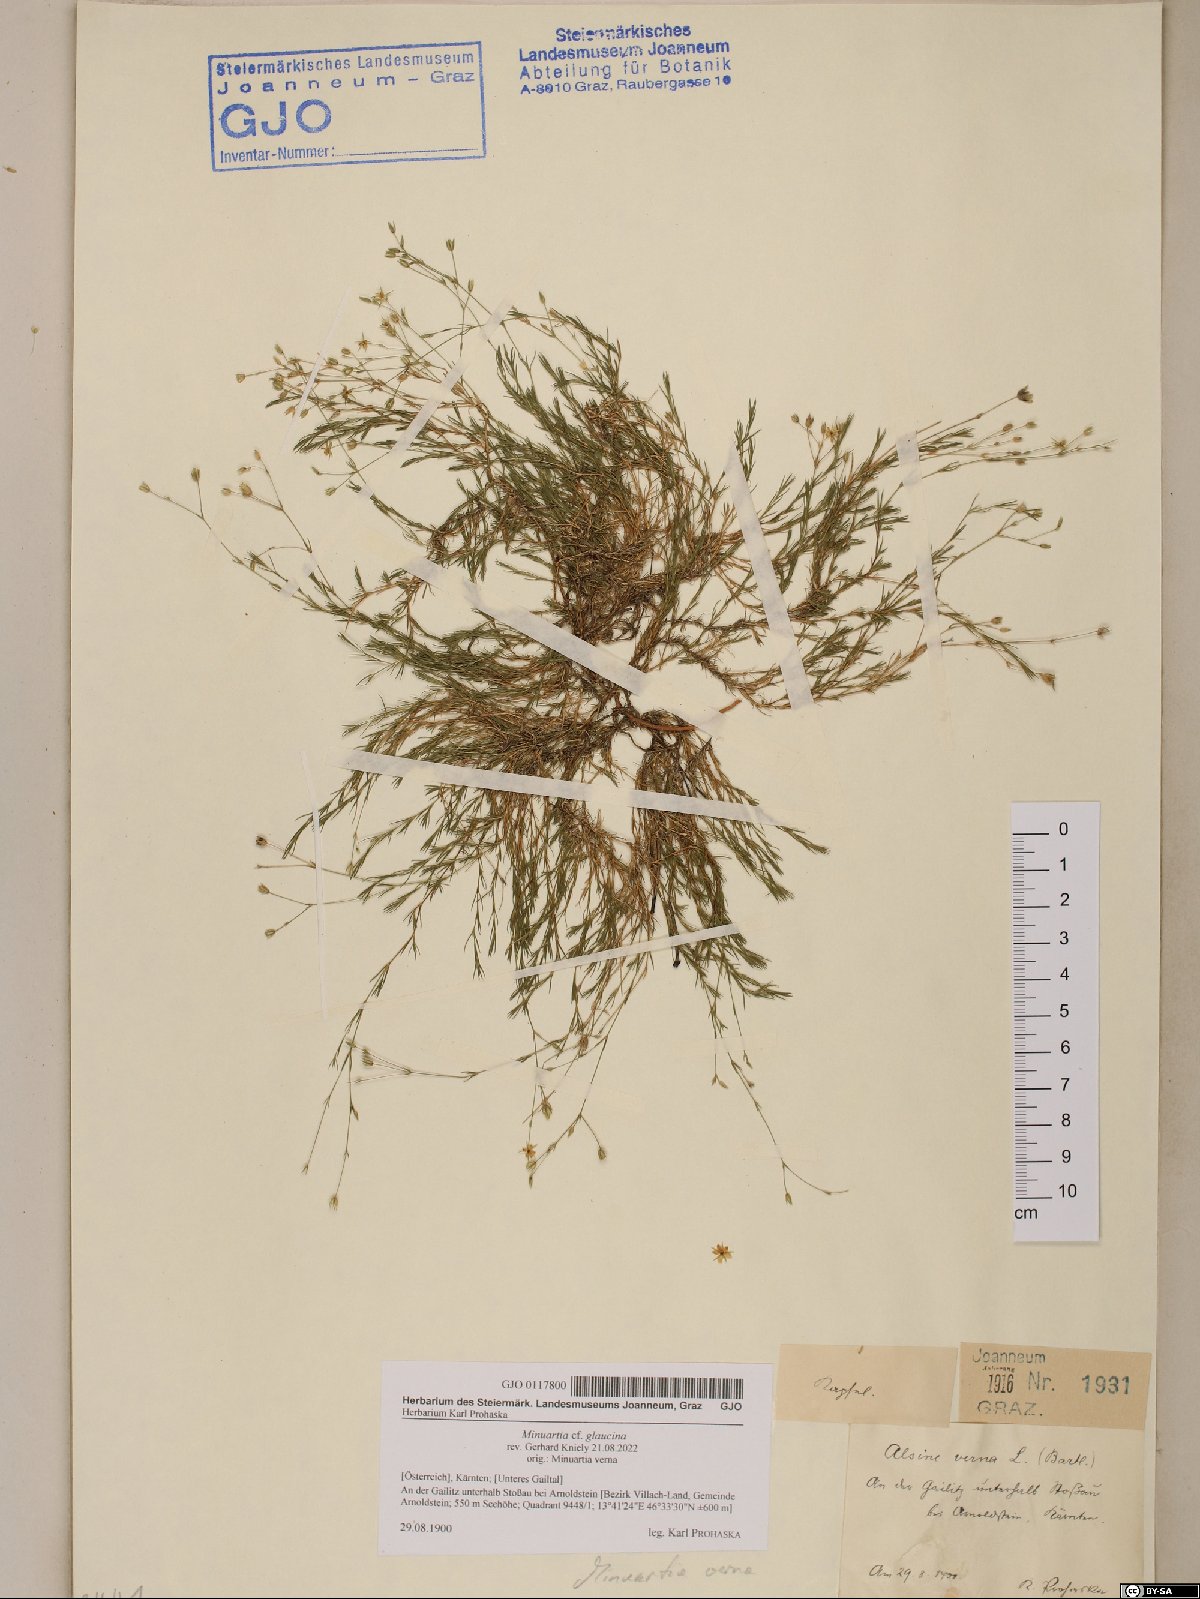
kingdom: Plantae
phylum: Tracheophyta
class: Magnoliopsida
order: Caryophyllales
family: Caryophyllaceae
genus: Sabulina
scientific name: Sabulina glaucina
